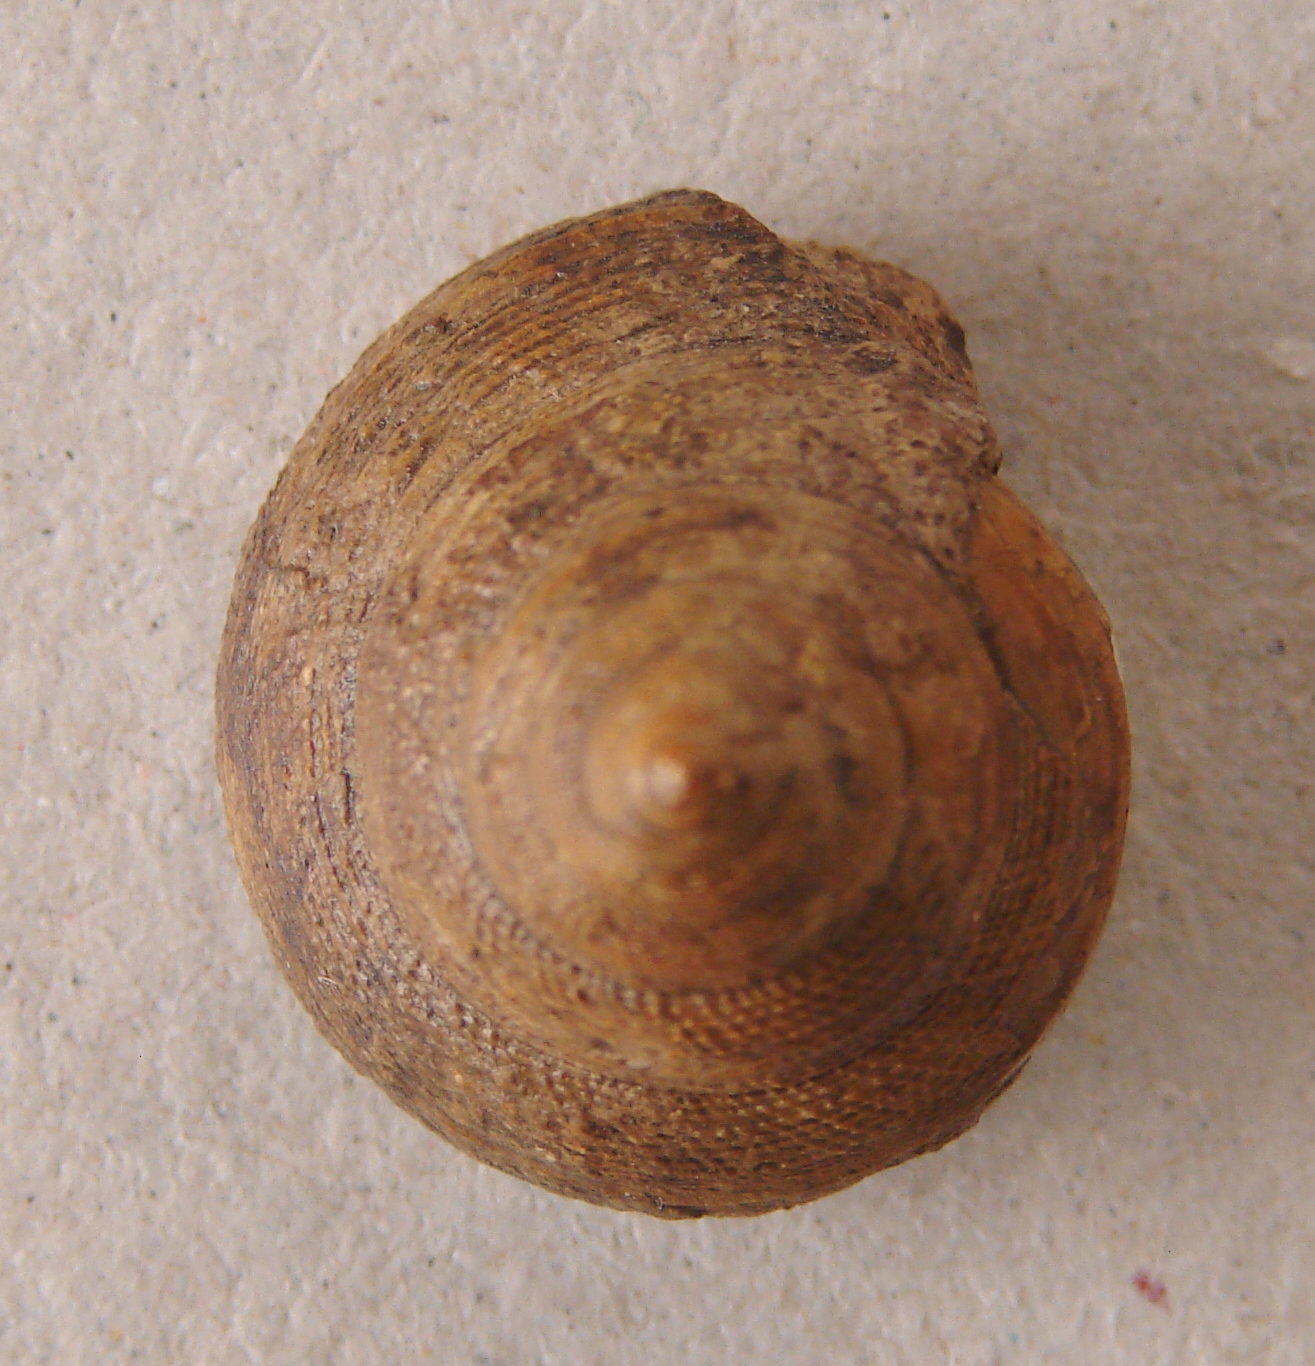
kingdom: Animalia
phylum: Mollusca
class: Gastropoda
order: Pleurotomariida
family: Pleurotomariidae
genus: Bathrotomaria
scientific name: Bathrotomaria Pleurotomaria subreticulata
